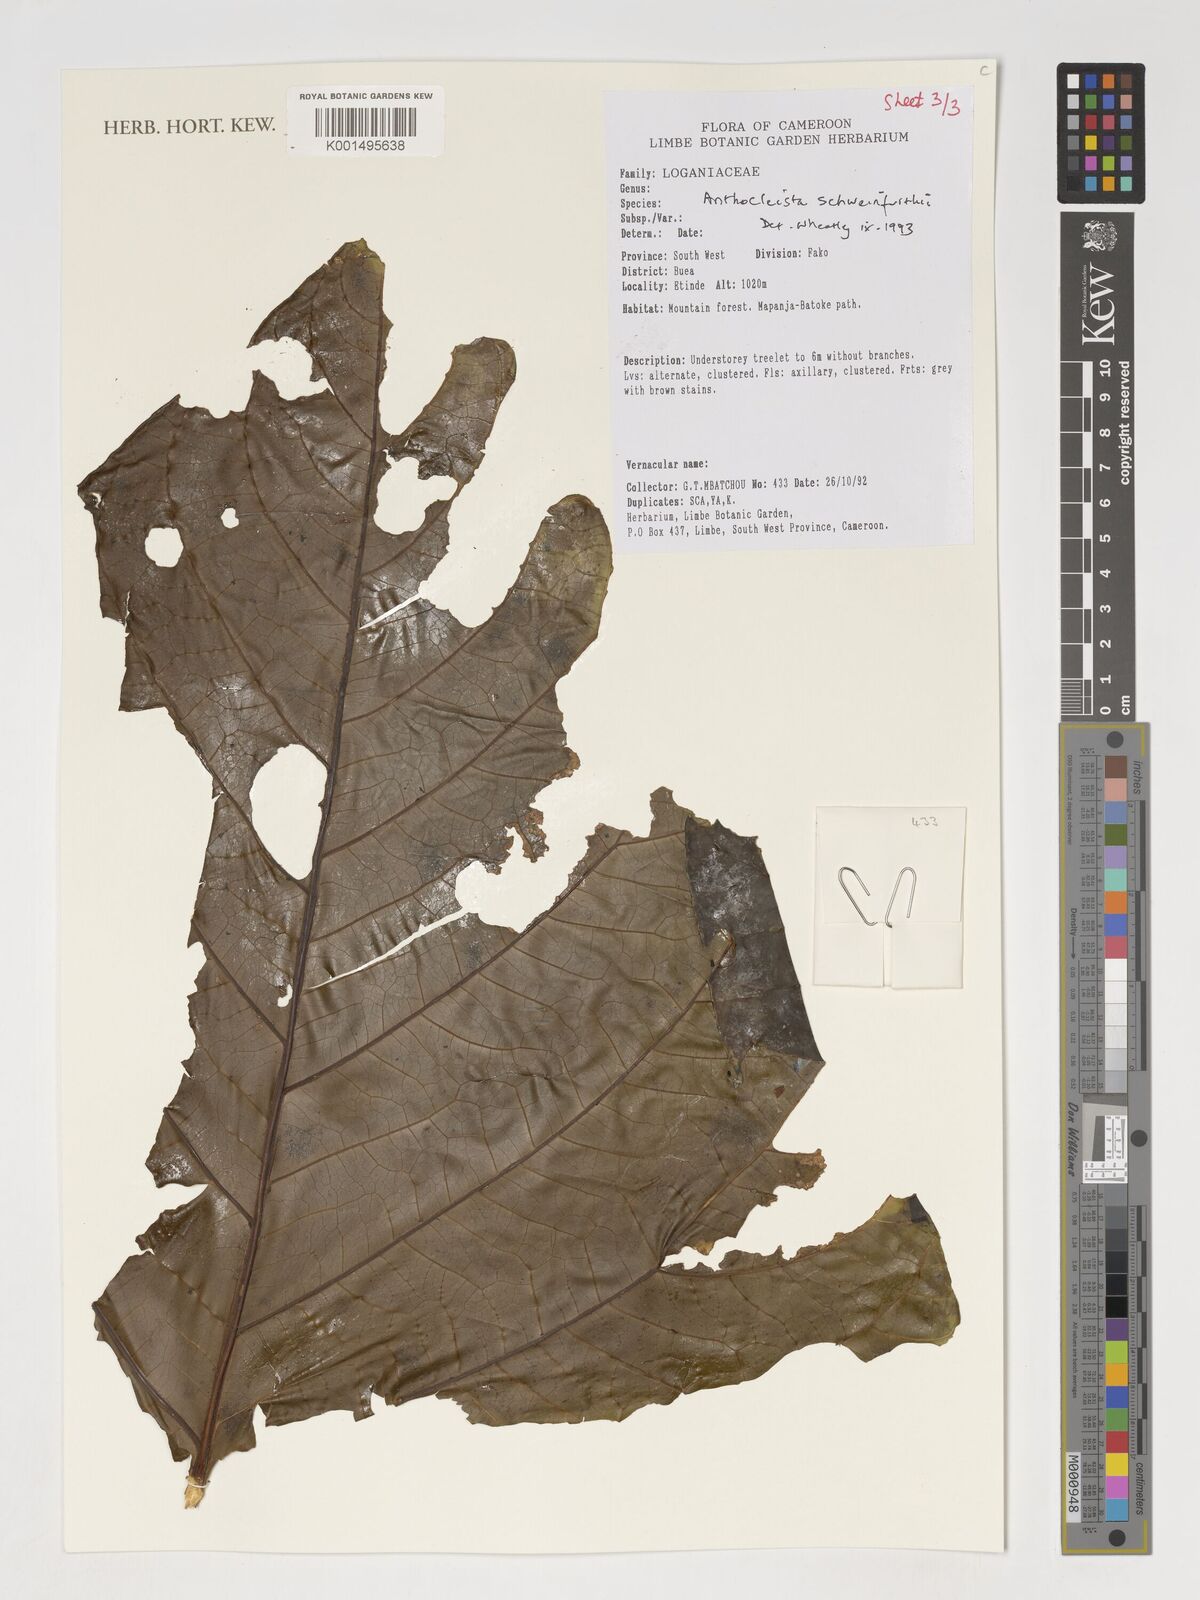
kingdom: Plantae
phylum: Tracheophyta
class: Magnoliopsida
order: Gentianales
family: Gentianaceae
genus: Anthocleista
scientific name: Anthocleista schweinfurthii
